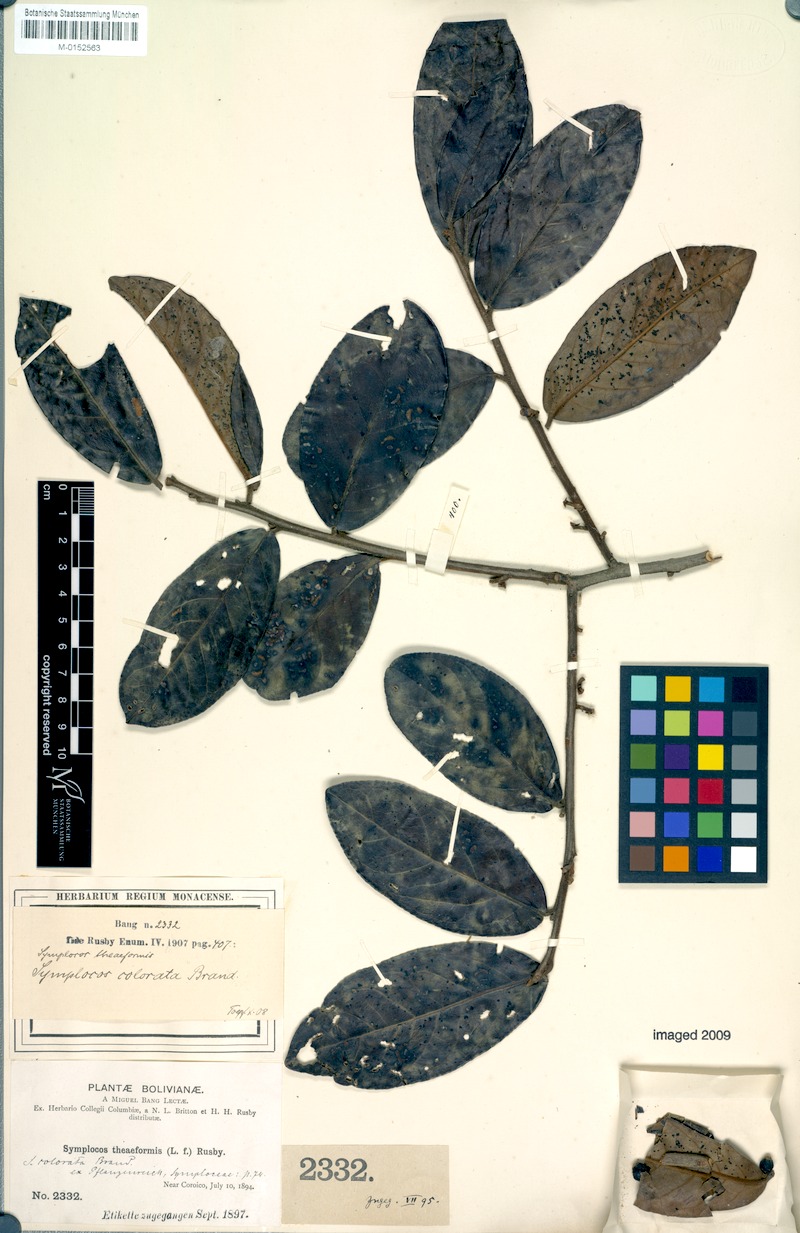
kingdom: Plantae
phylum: Tracheophyta
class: Magnoliopsida
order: Ericales
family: Symplocaceae
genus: Symplocos
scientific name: Symplocos colorata
